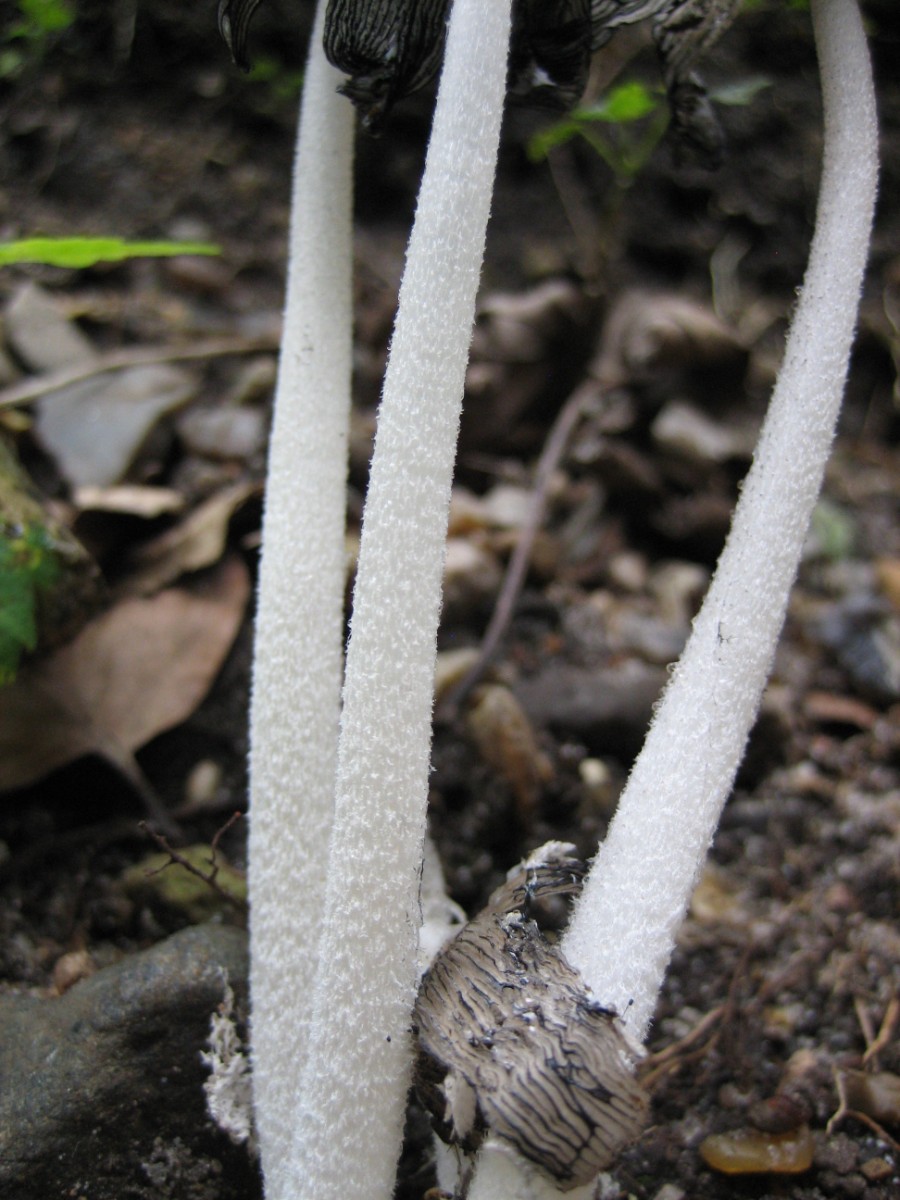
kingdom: Fungi
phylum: Basidiomycota
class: Agaricomycetes
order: Agaricales
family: Psathyrellaceae
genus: Coprinopsis
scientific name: Coprinopsis lagopus
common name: dunstokket blækhat
